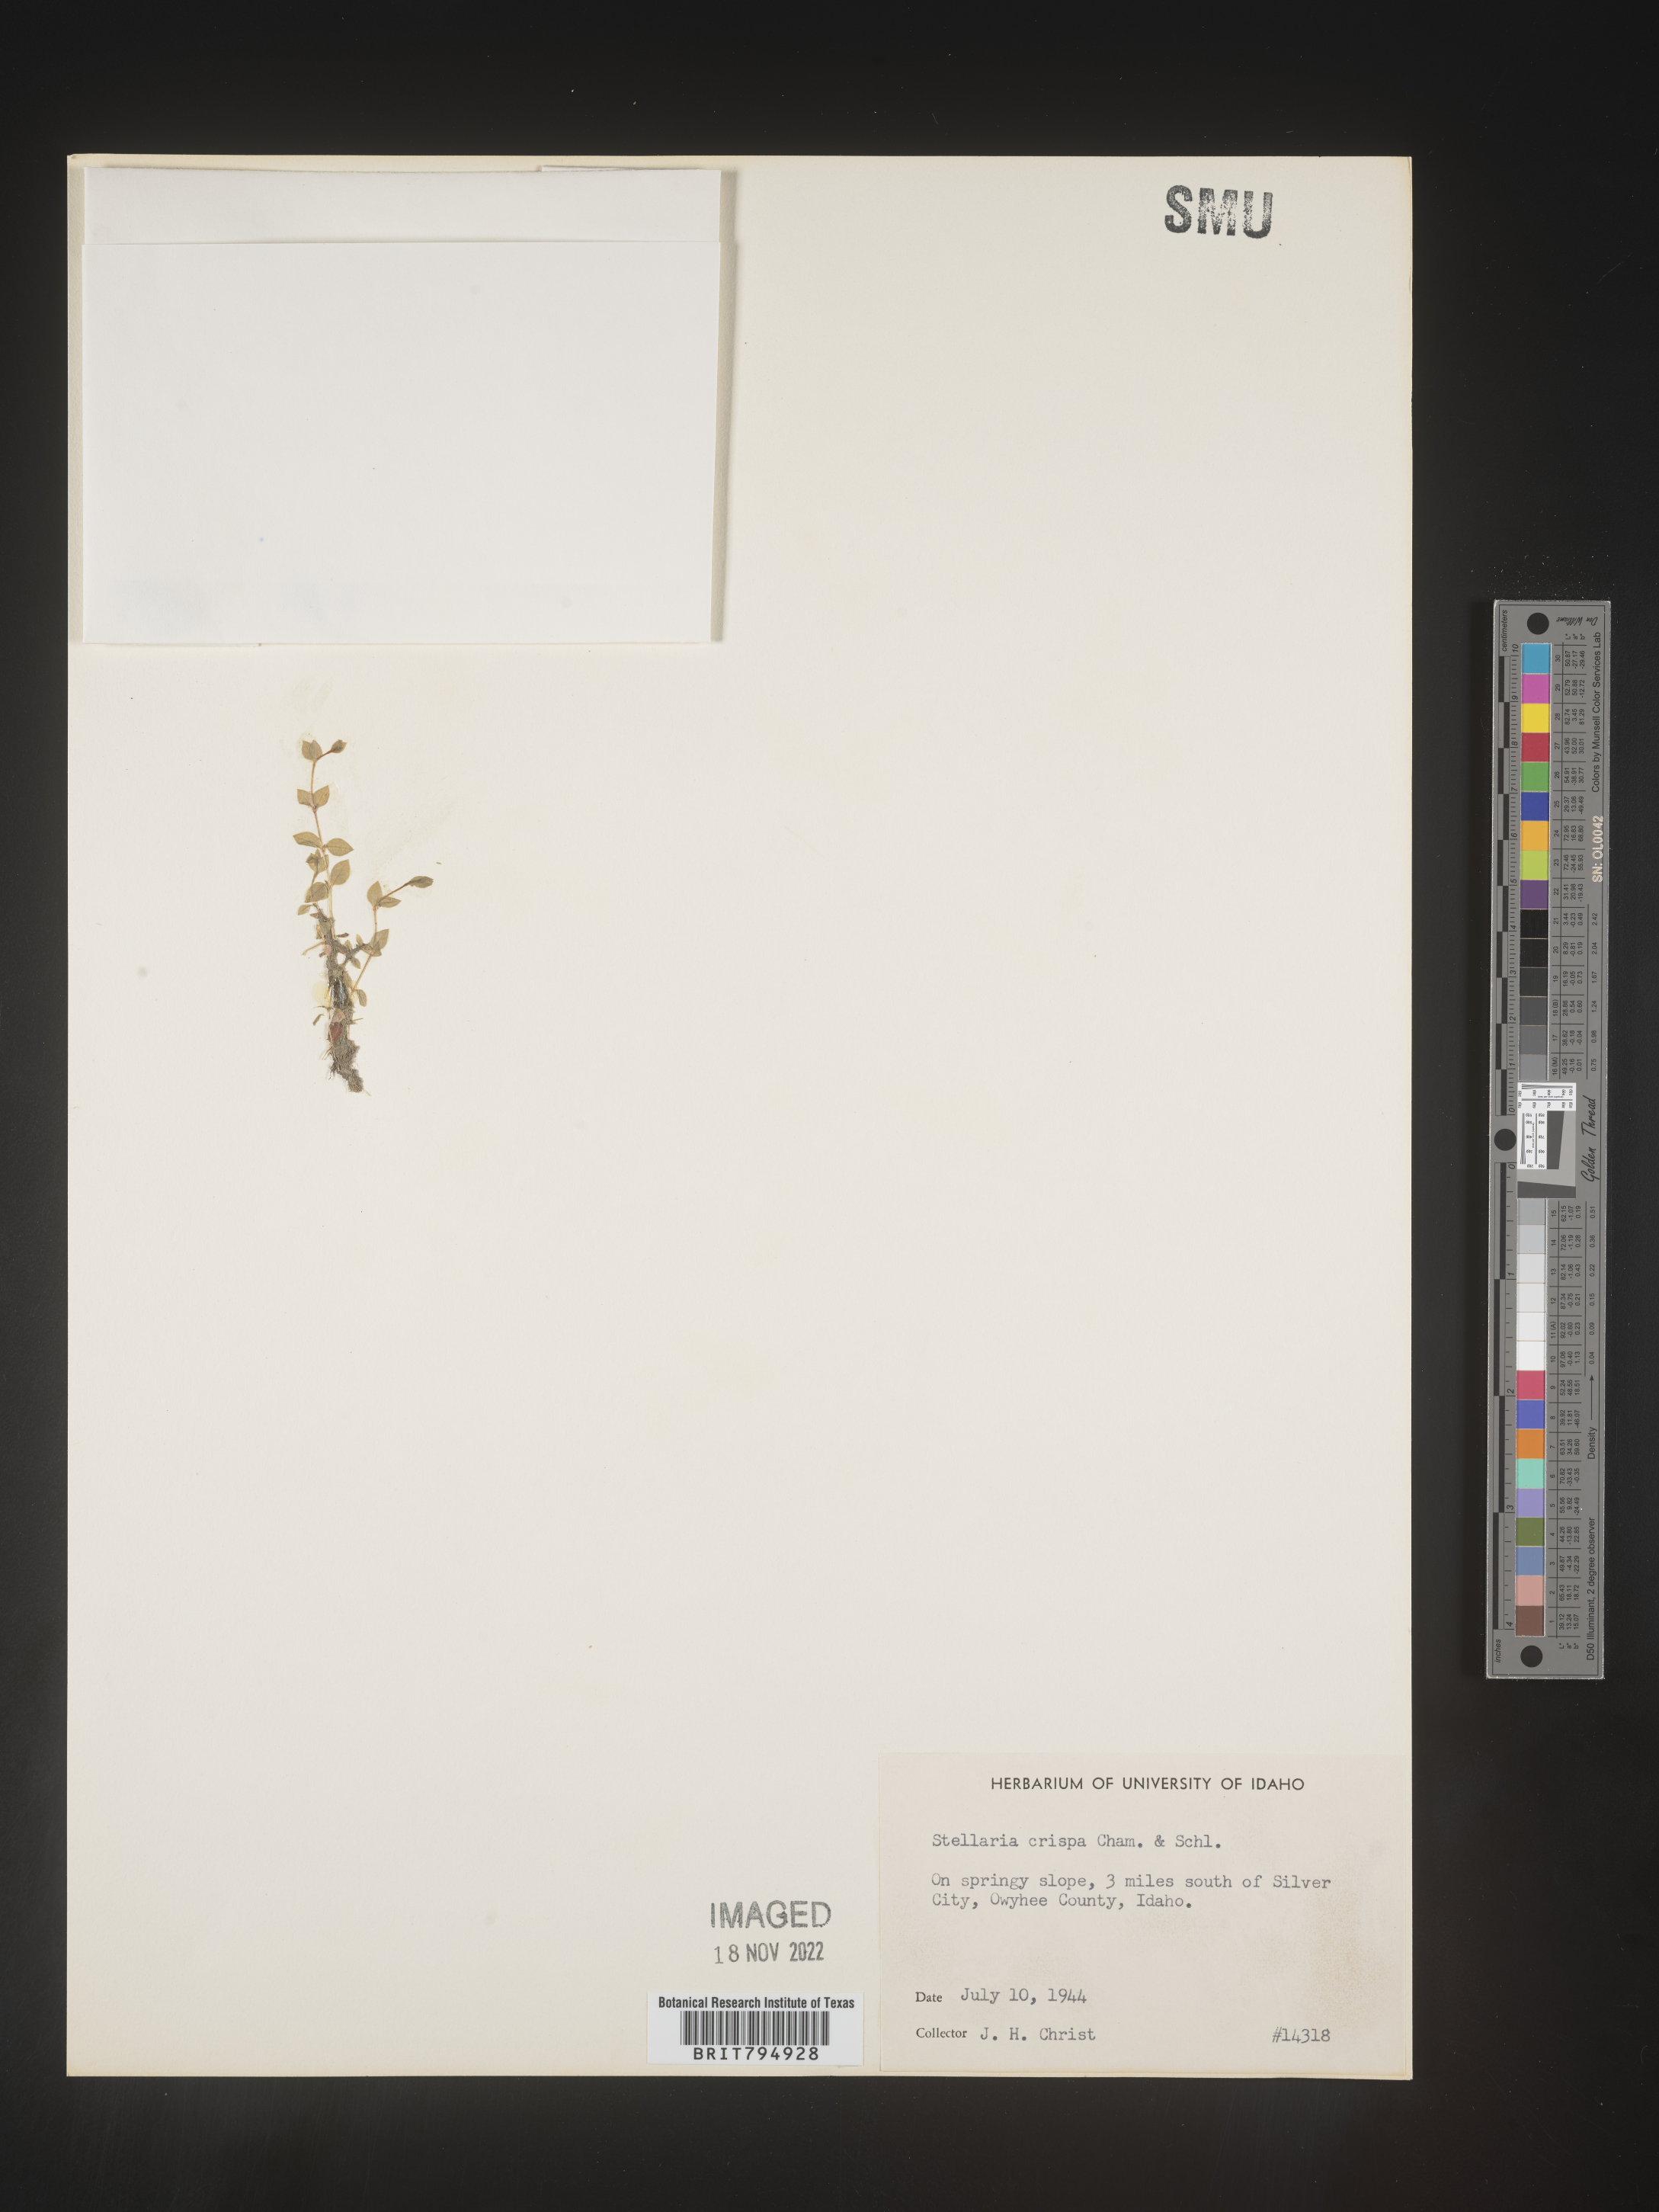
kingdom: Plantae
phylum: Tracheophyta
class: Magnoliopsida
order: Caryophyllales
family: Caryophyllaceae
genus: Stellaria
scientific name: Stellaria crispa
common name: Crimped stitchwort
